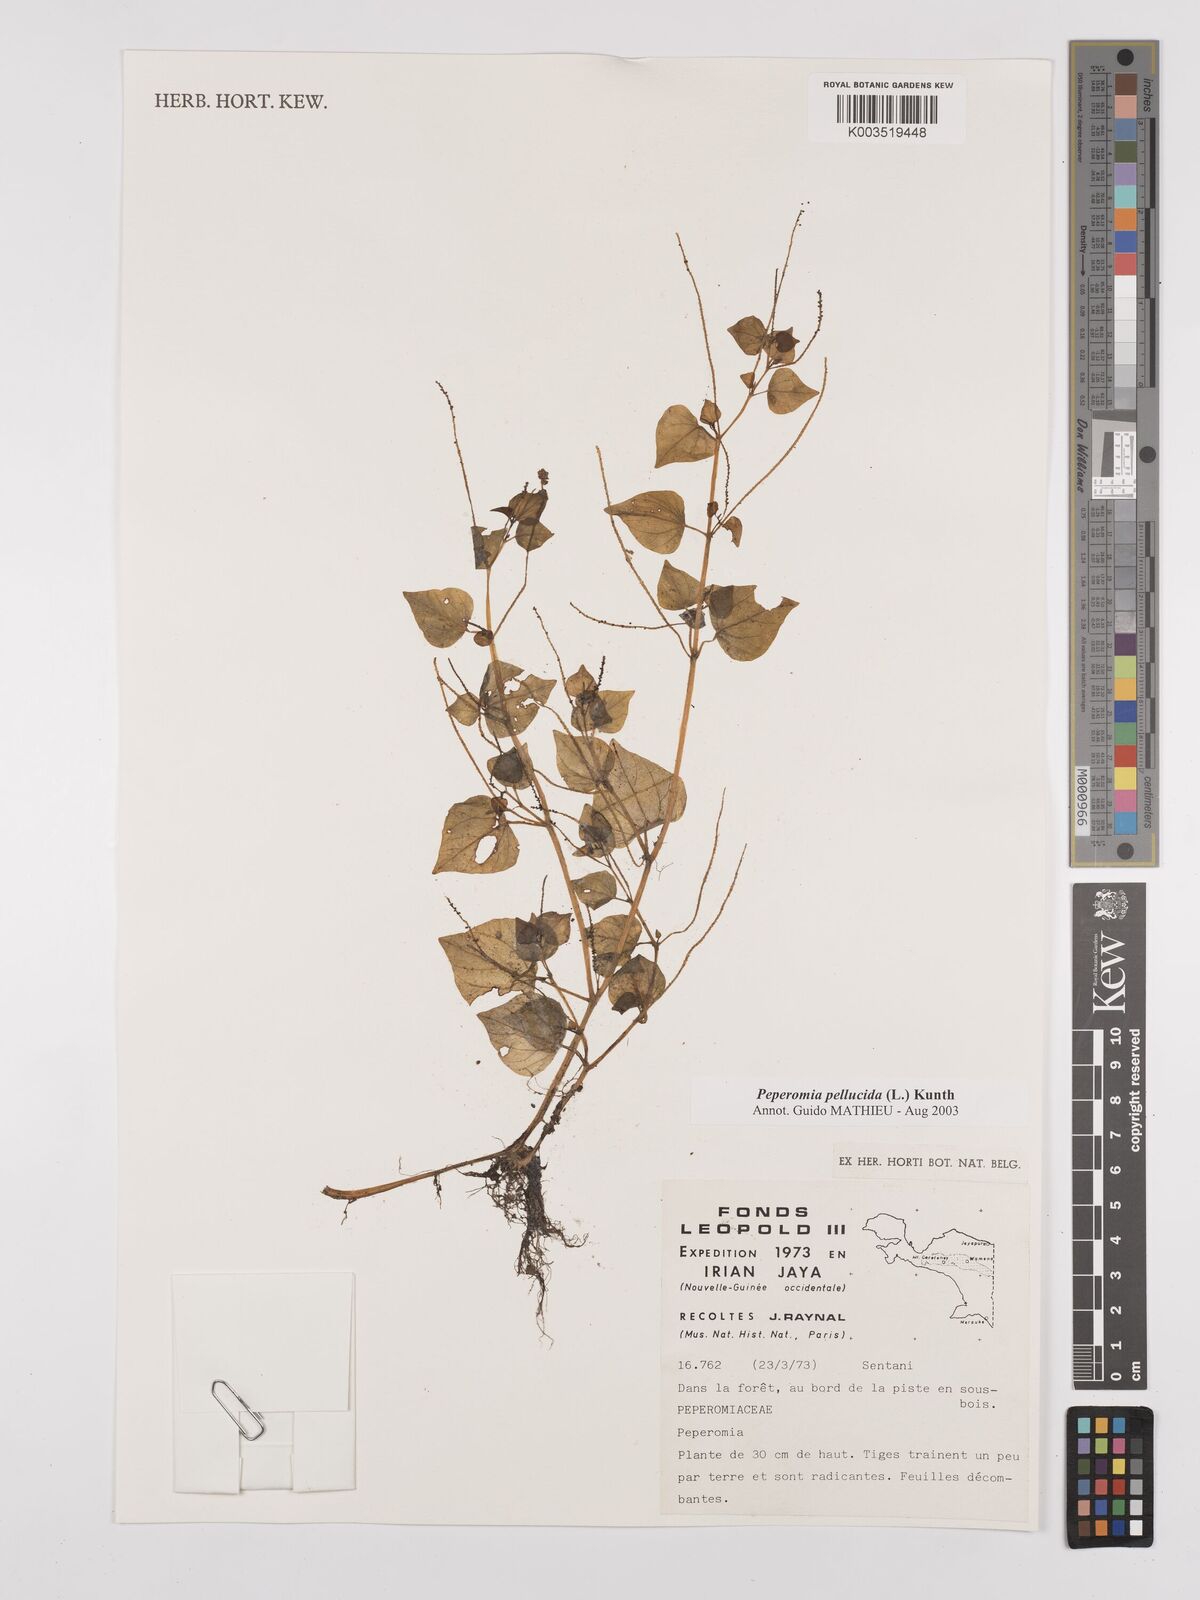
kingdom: Plantae
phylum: Tracheophyta
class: Magnoliopsida
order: Piperales
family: Piperaceae
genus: Peperomia
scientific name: Peperomia pellucida
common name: Man to man
